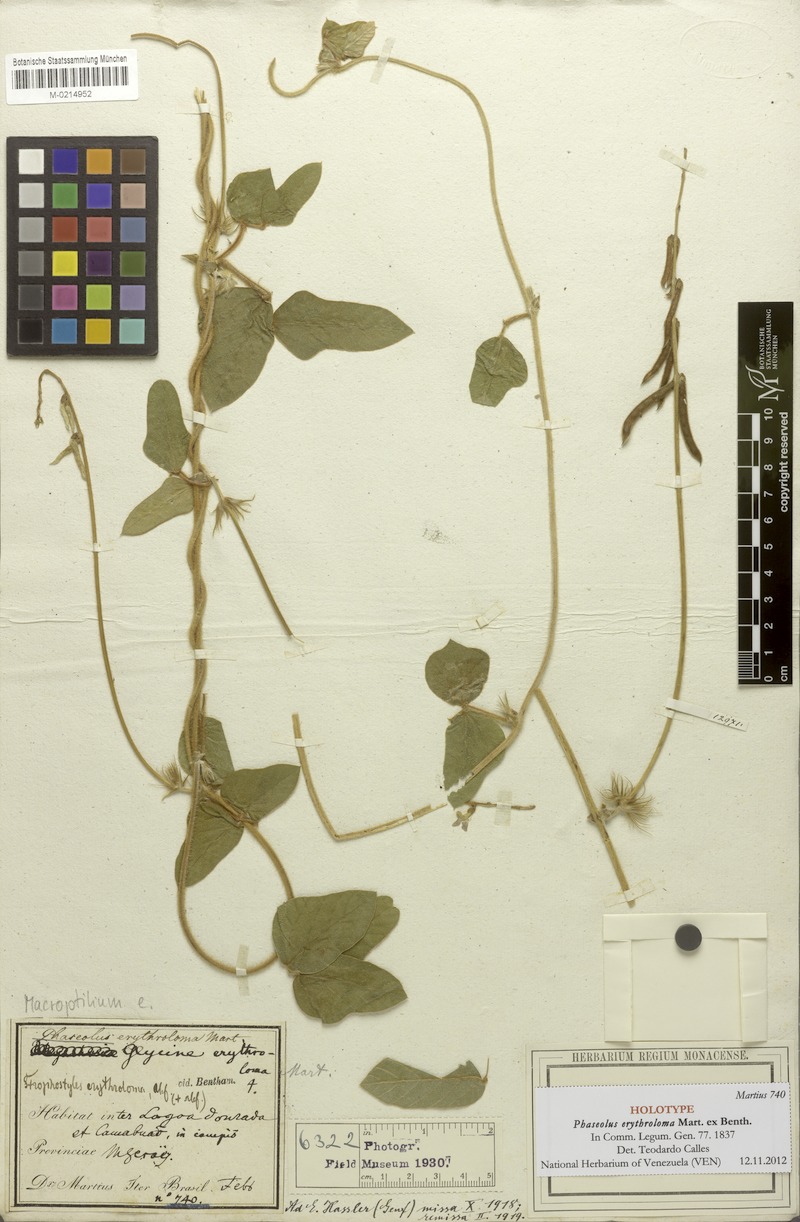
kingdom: Plantae
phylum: Tracheophyta
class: Magnoliopsida
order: Fabales
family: Fabaceae
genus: Macroptilium
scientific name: Macroptilium panduratum
